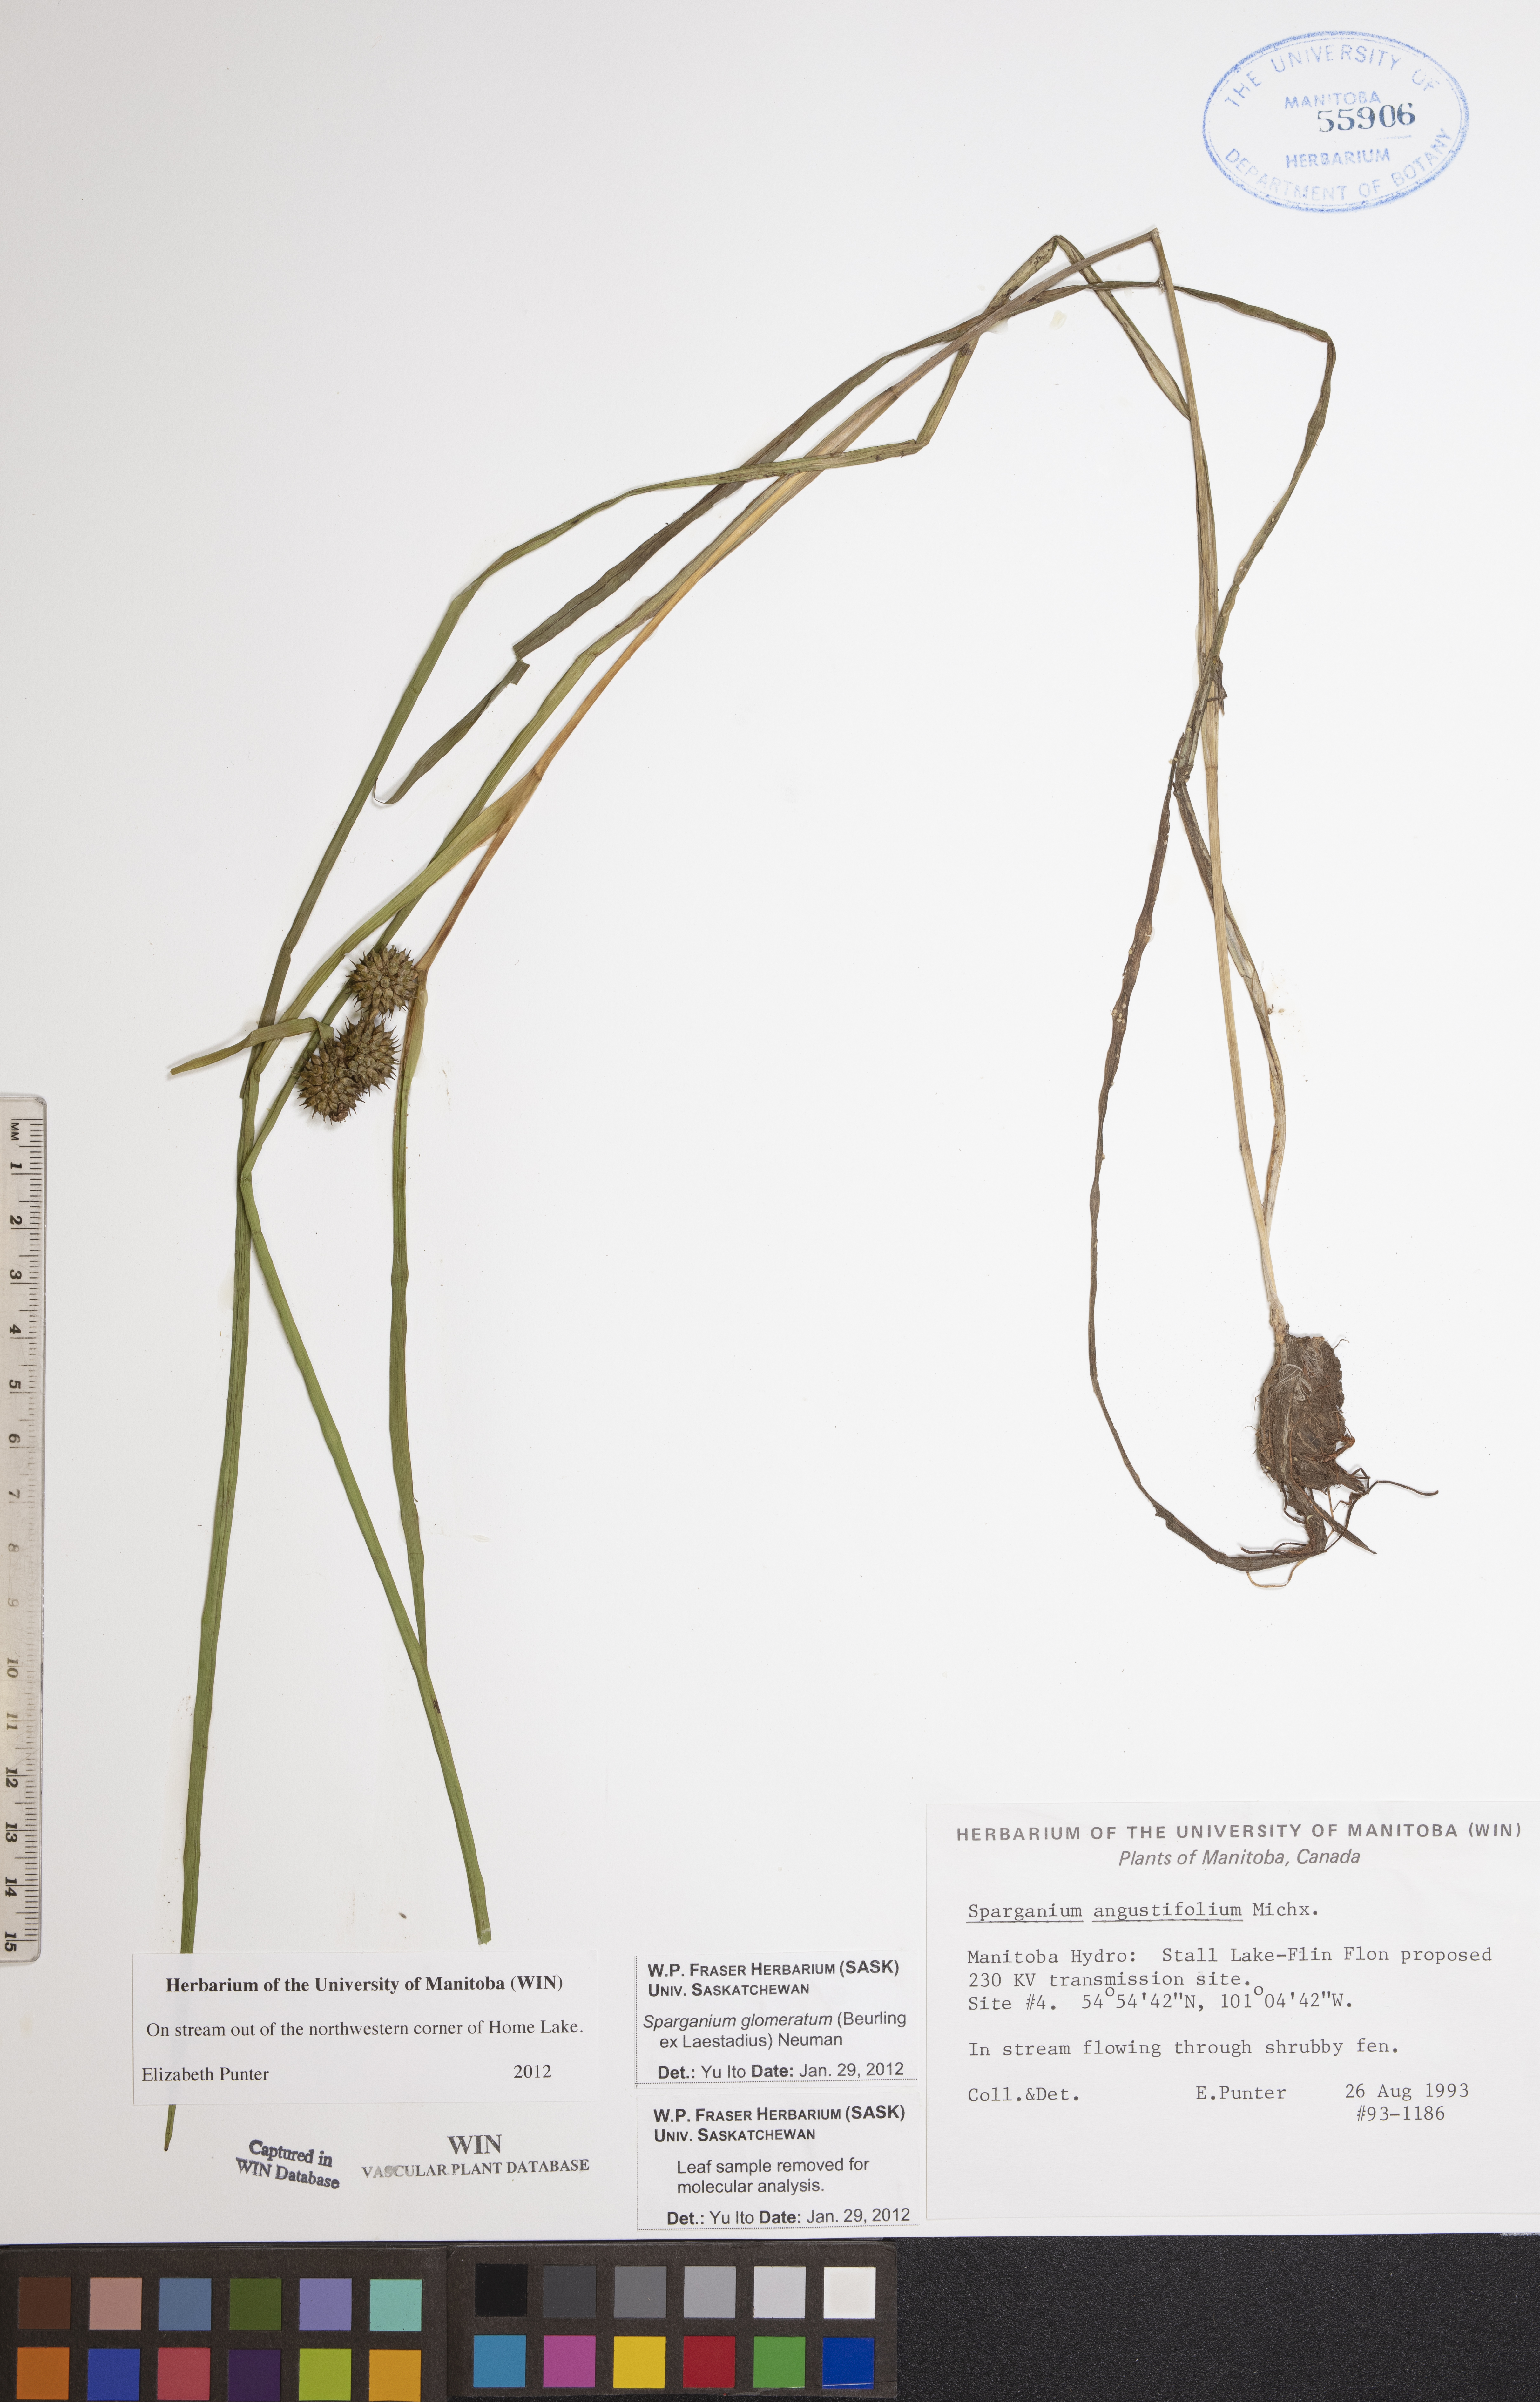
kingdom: Plantae
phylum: Tracheophyta
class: Liliopsida
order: Poales
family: Typhaceae
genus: Sparganium
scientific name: Sparganium glomeratum
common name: Clustered burreed
